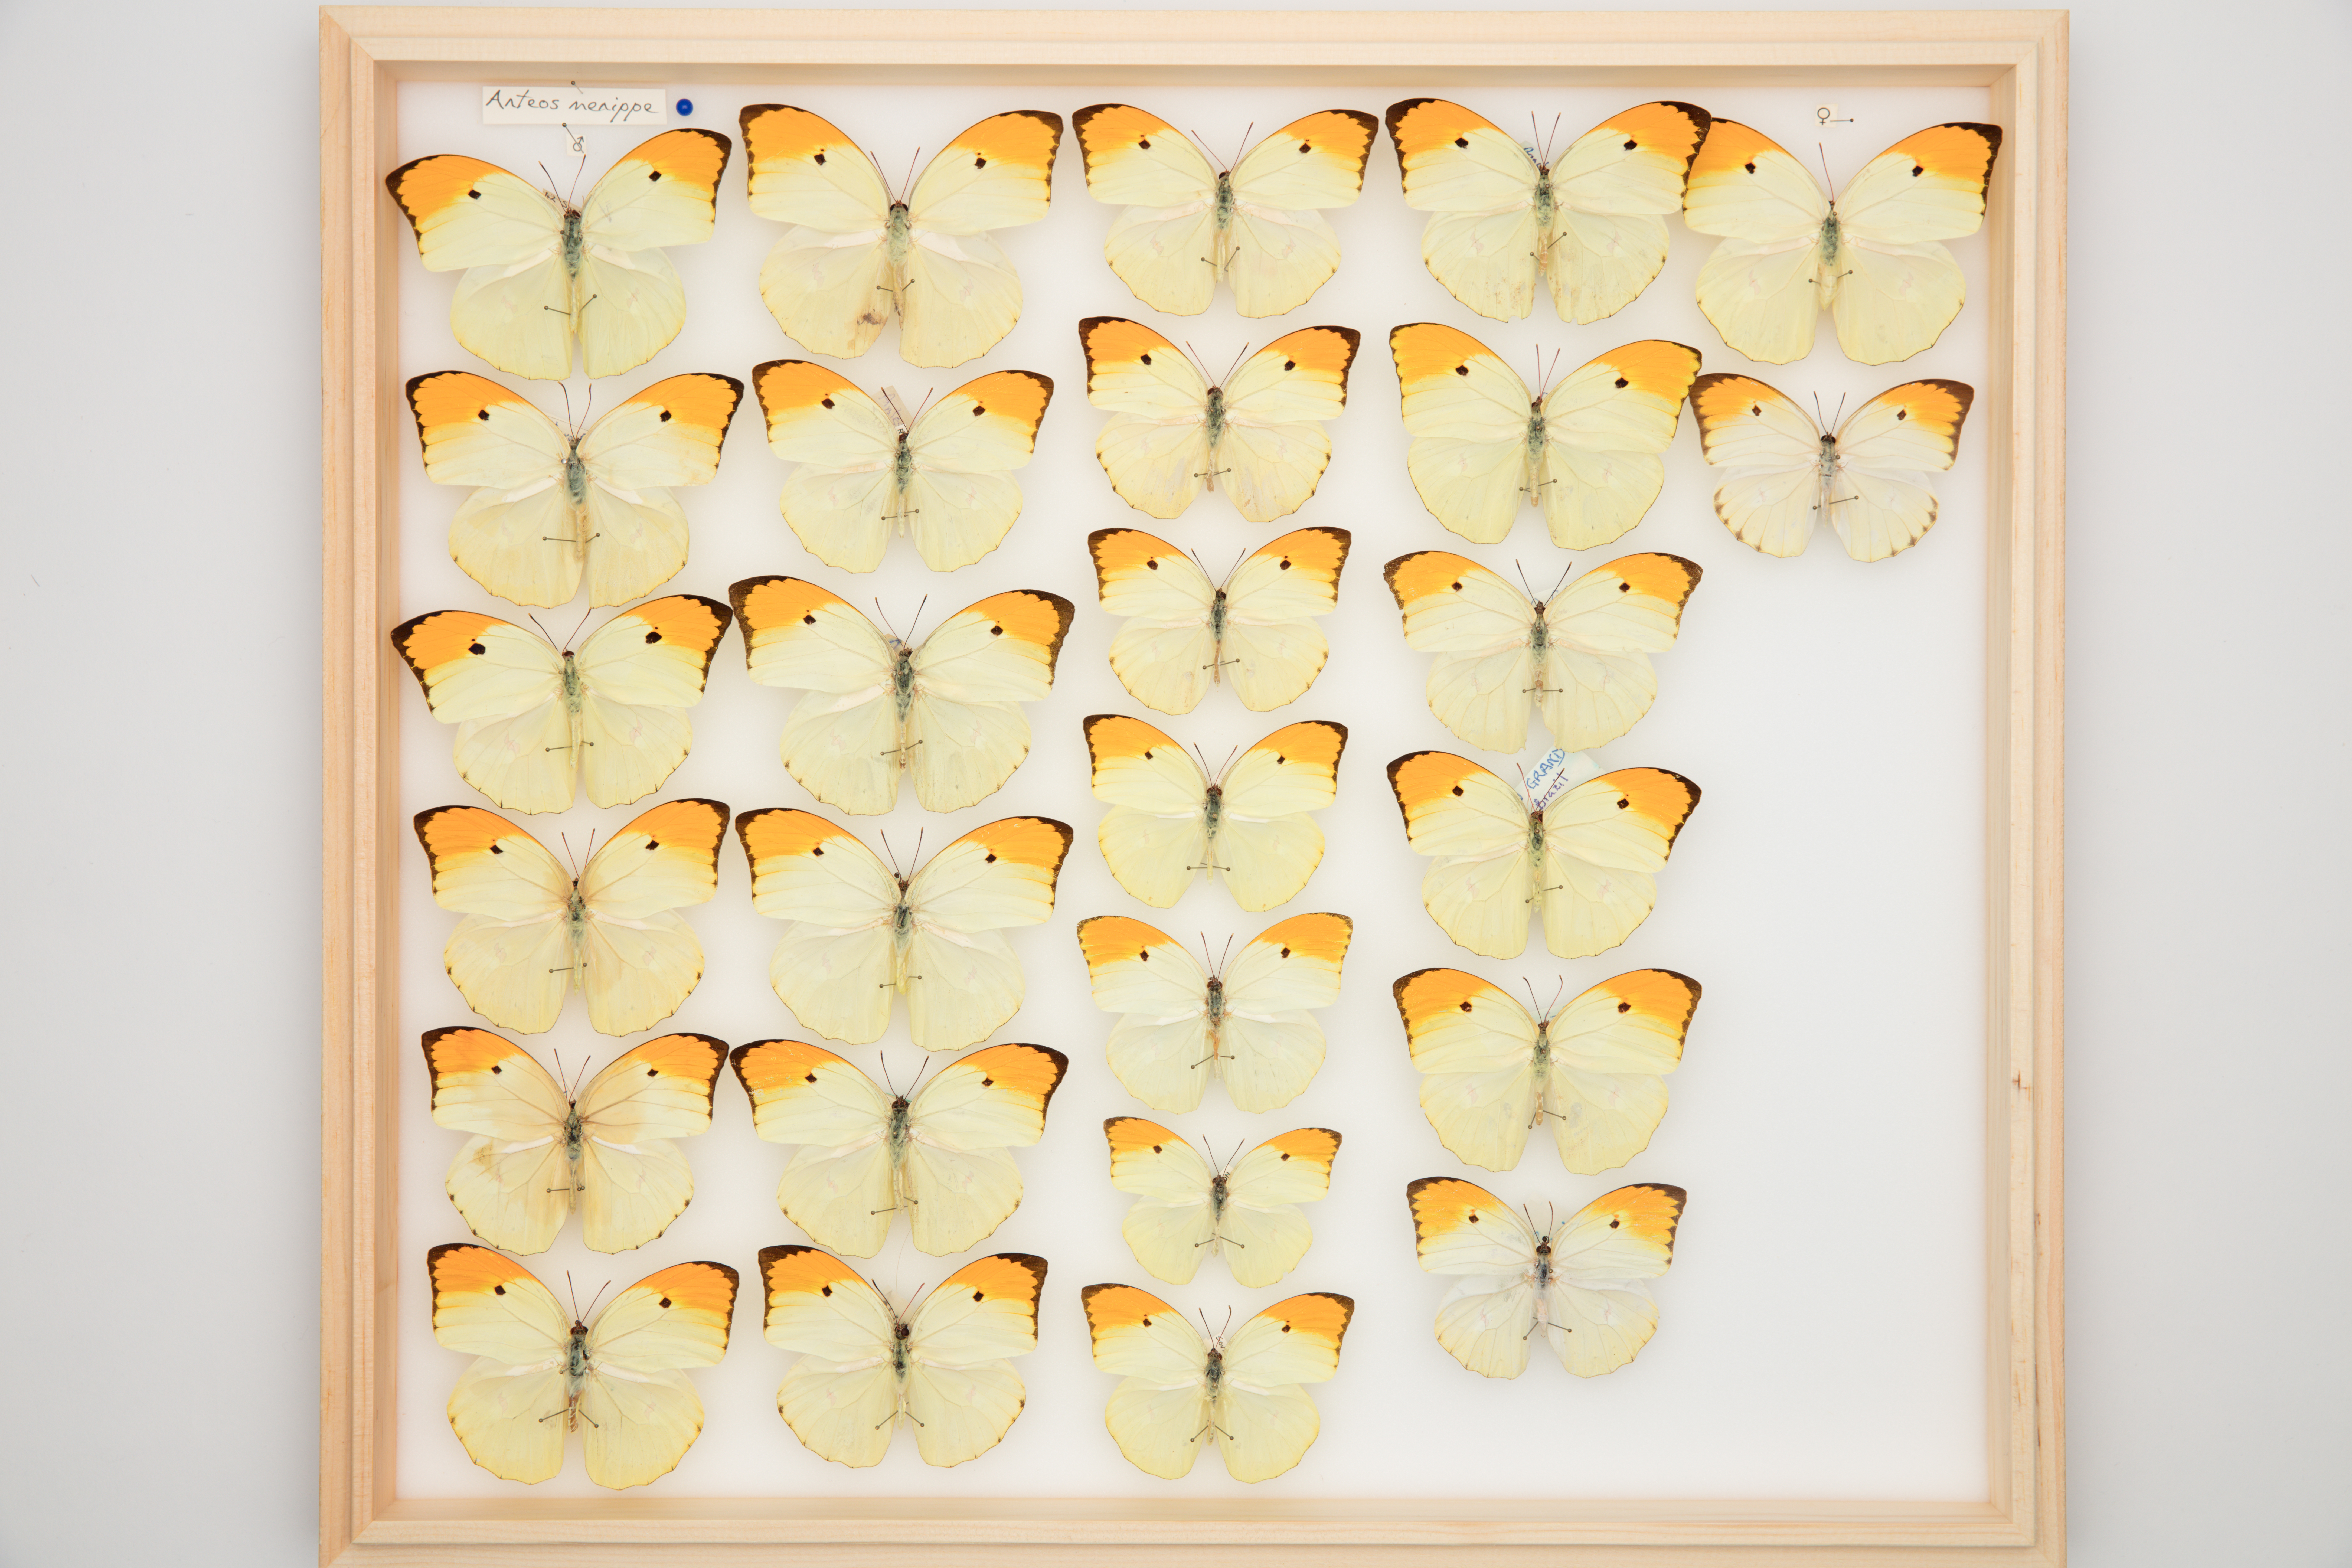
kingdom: Animalia
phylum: Arthropoda
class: Insecta
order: Lepidoptera
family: Pieridae
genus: Anteos
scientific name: Anteos menippe
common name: Orangetip angled-sulphur
